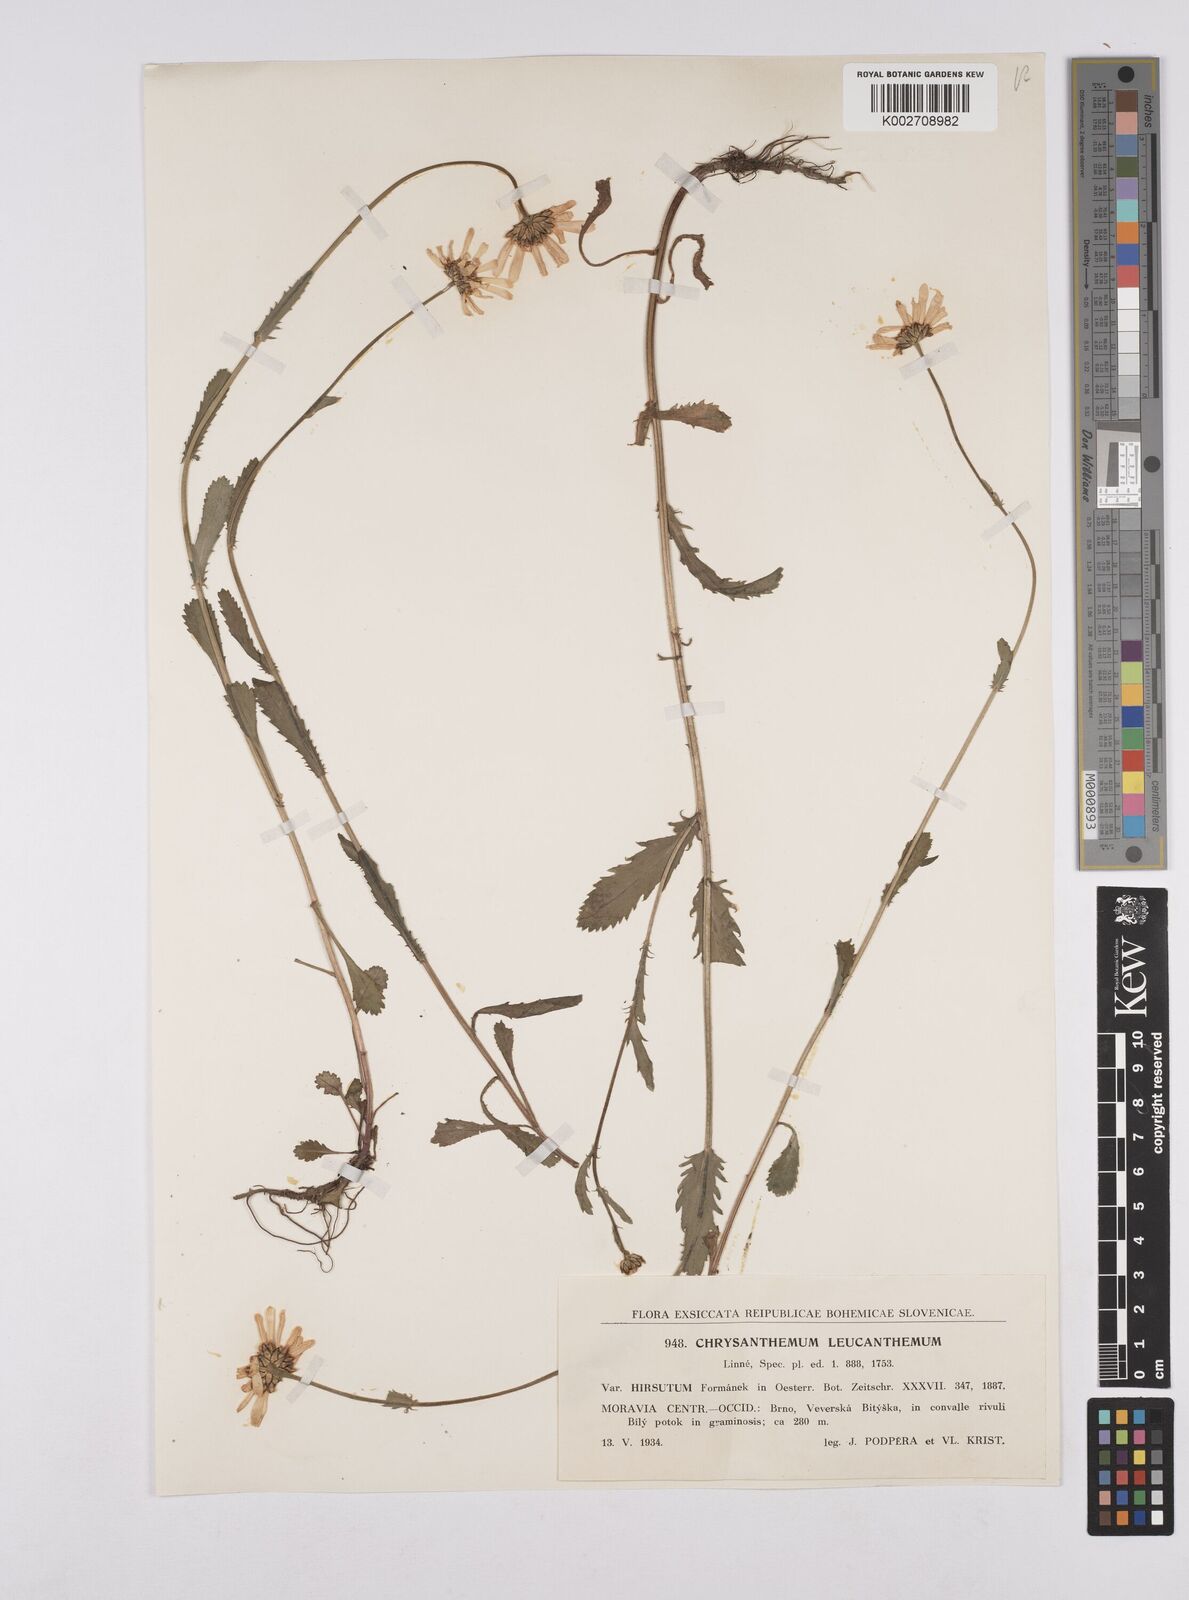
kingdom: Plantae
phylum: Tracheophyta
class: Magnoliopsida
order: Asterales
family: Asteraceae
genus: Leucanthemum
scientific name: Leucanthemum vulgare
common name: Oxeye daisy
